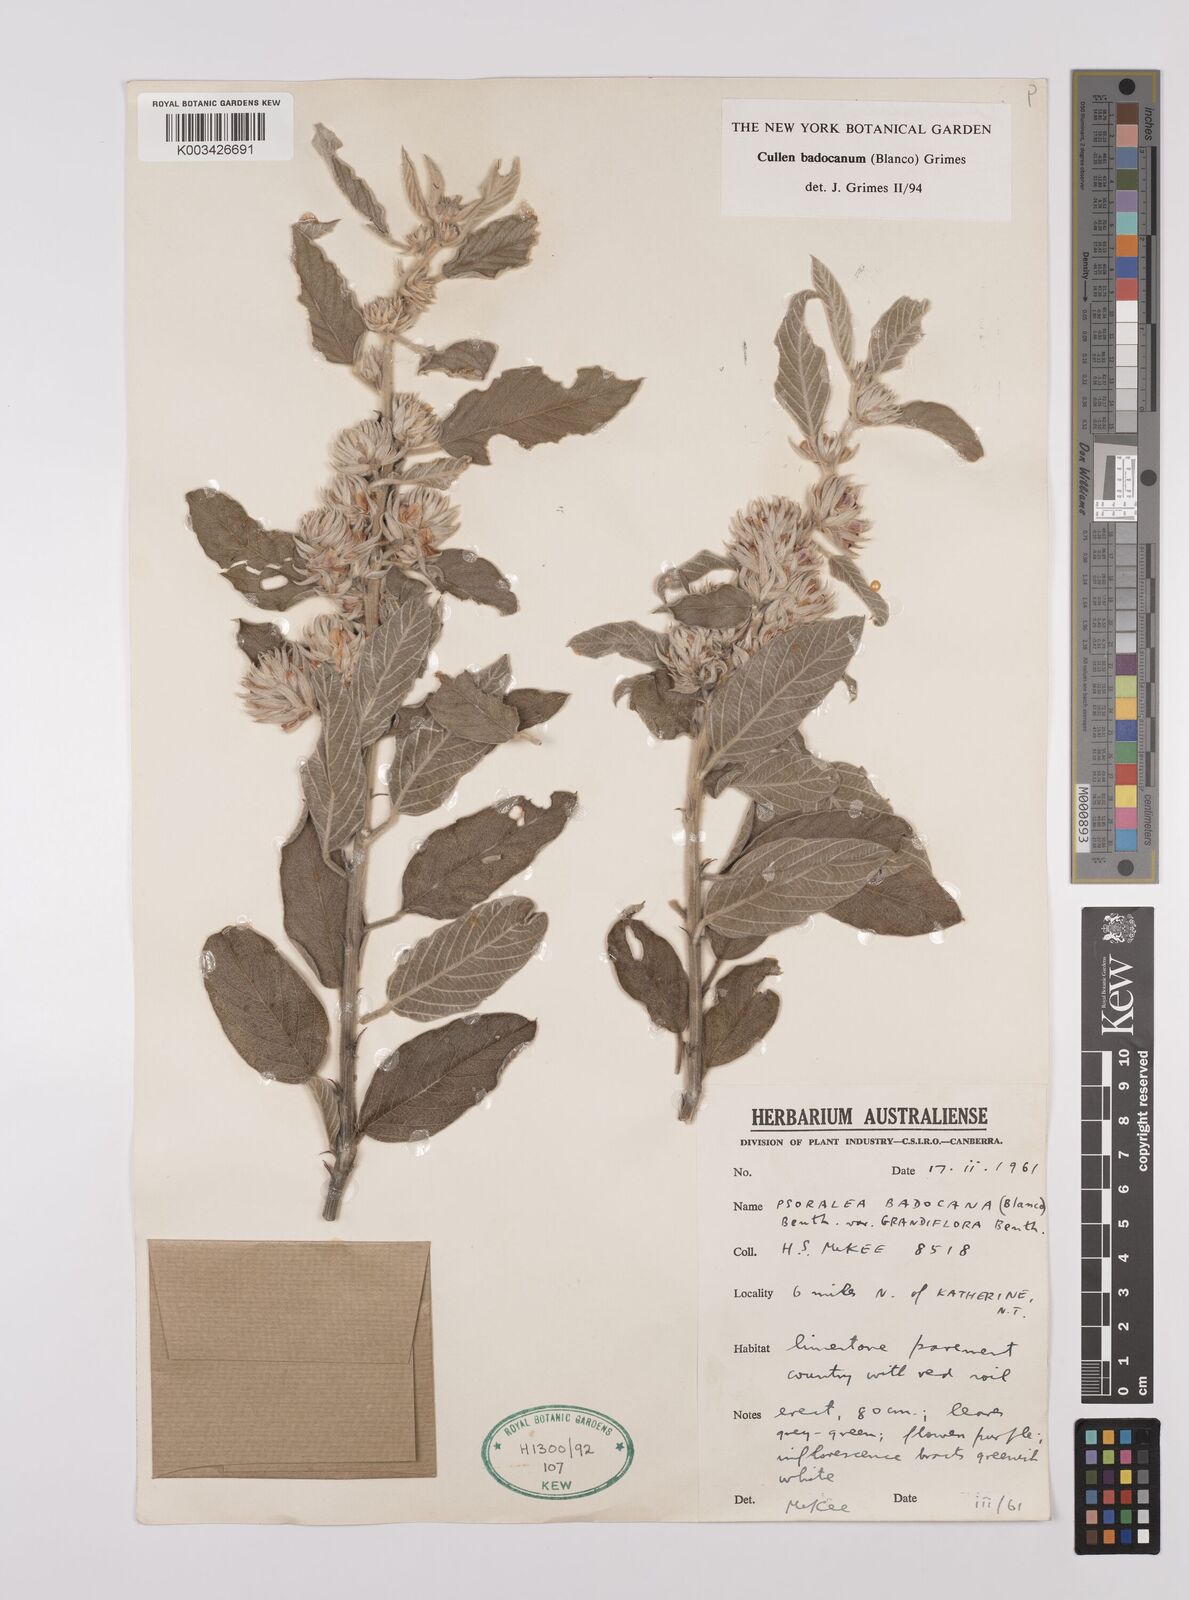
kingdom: Plantae
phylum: Tracheophyta
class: Magnoliopsida
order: Fabales
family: Fabaceae
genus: Cullen
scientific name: Cullen badocanum
